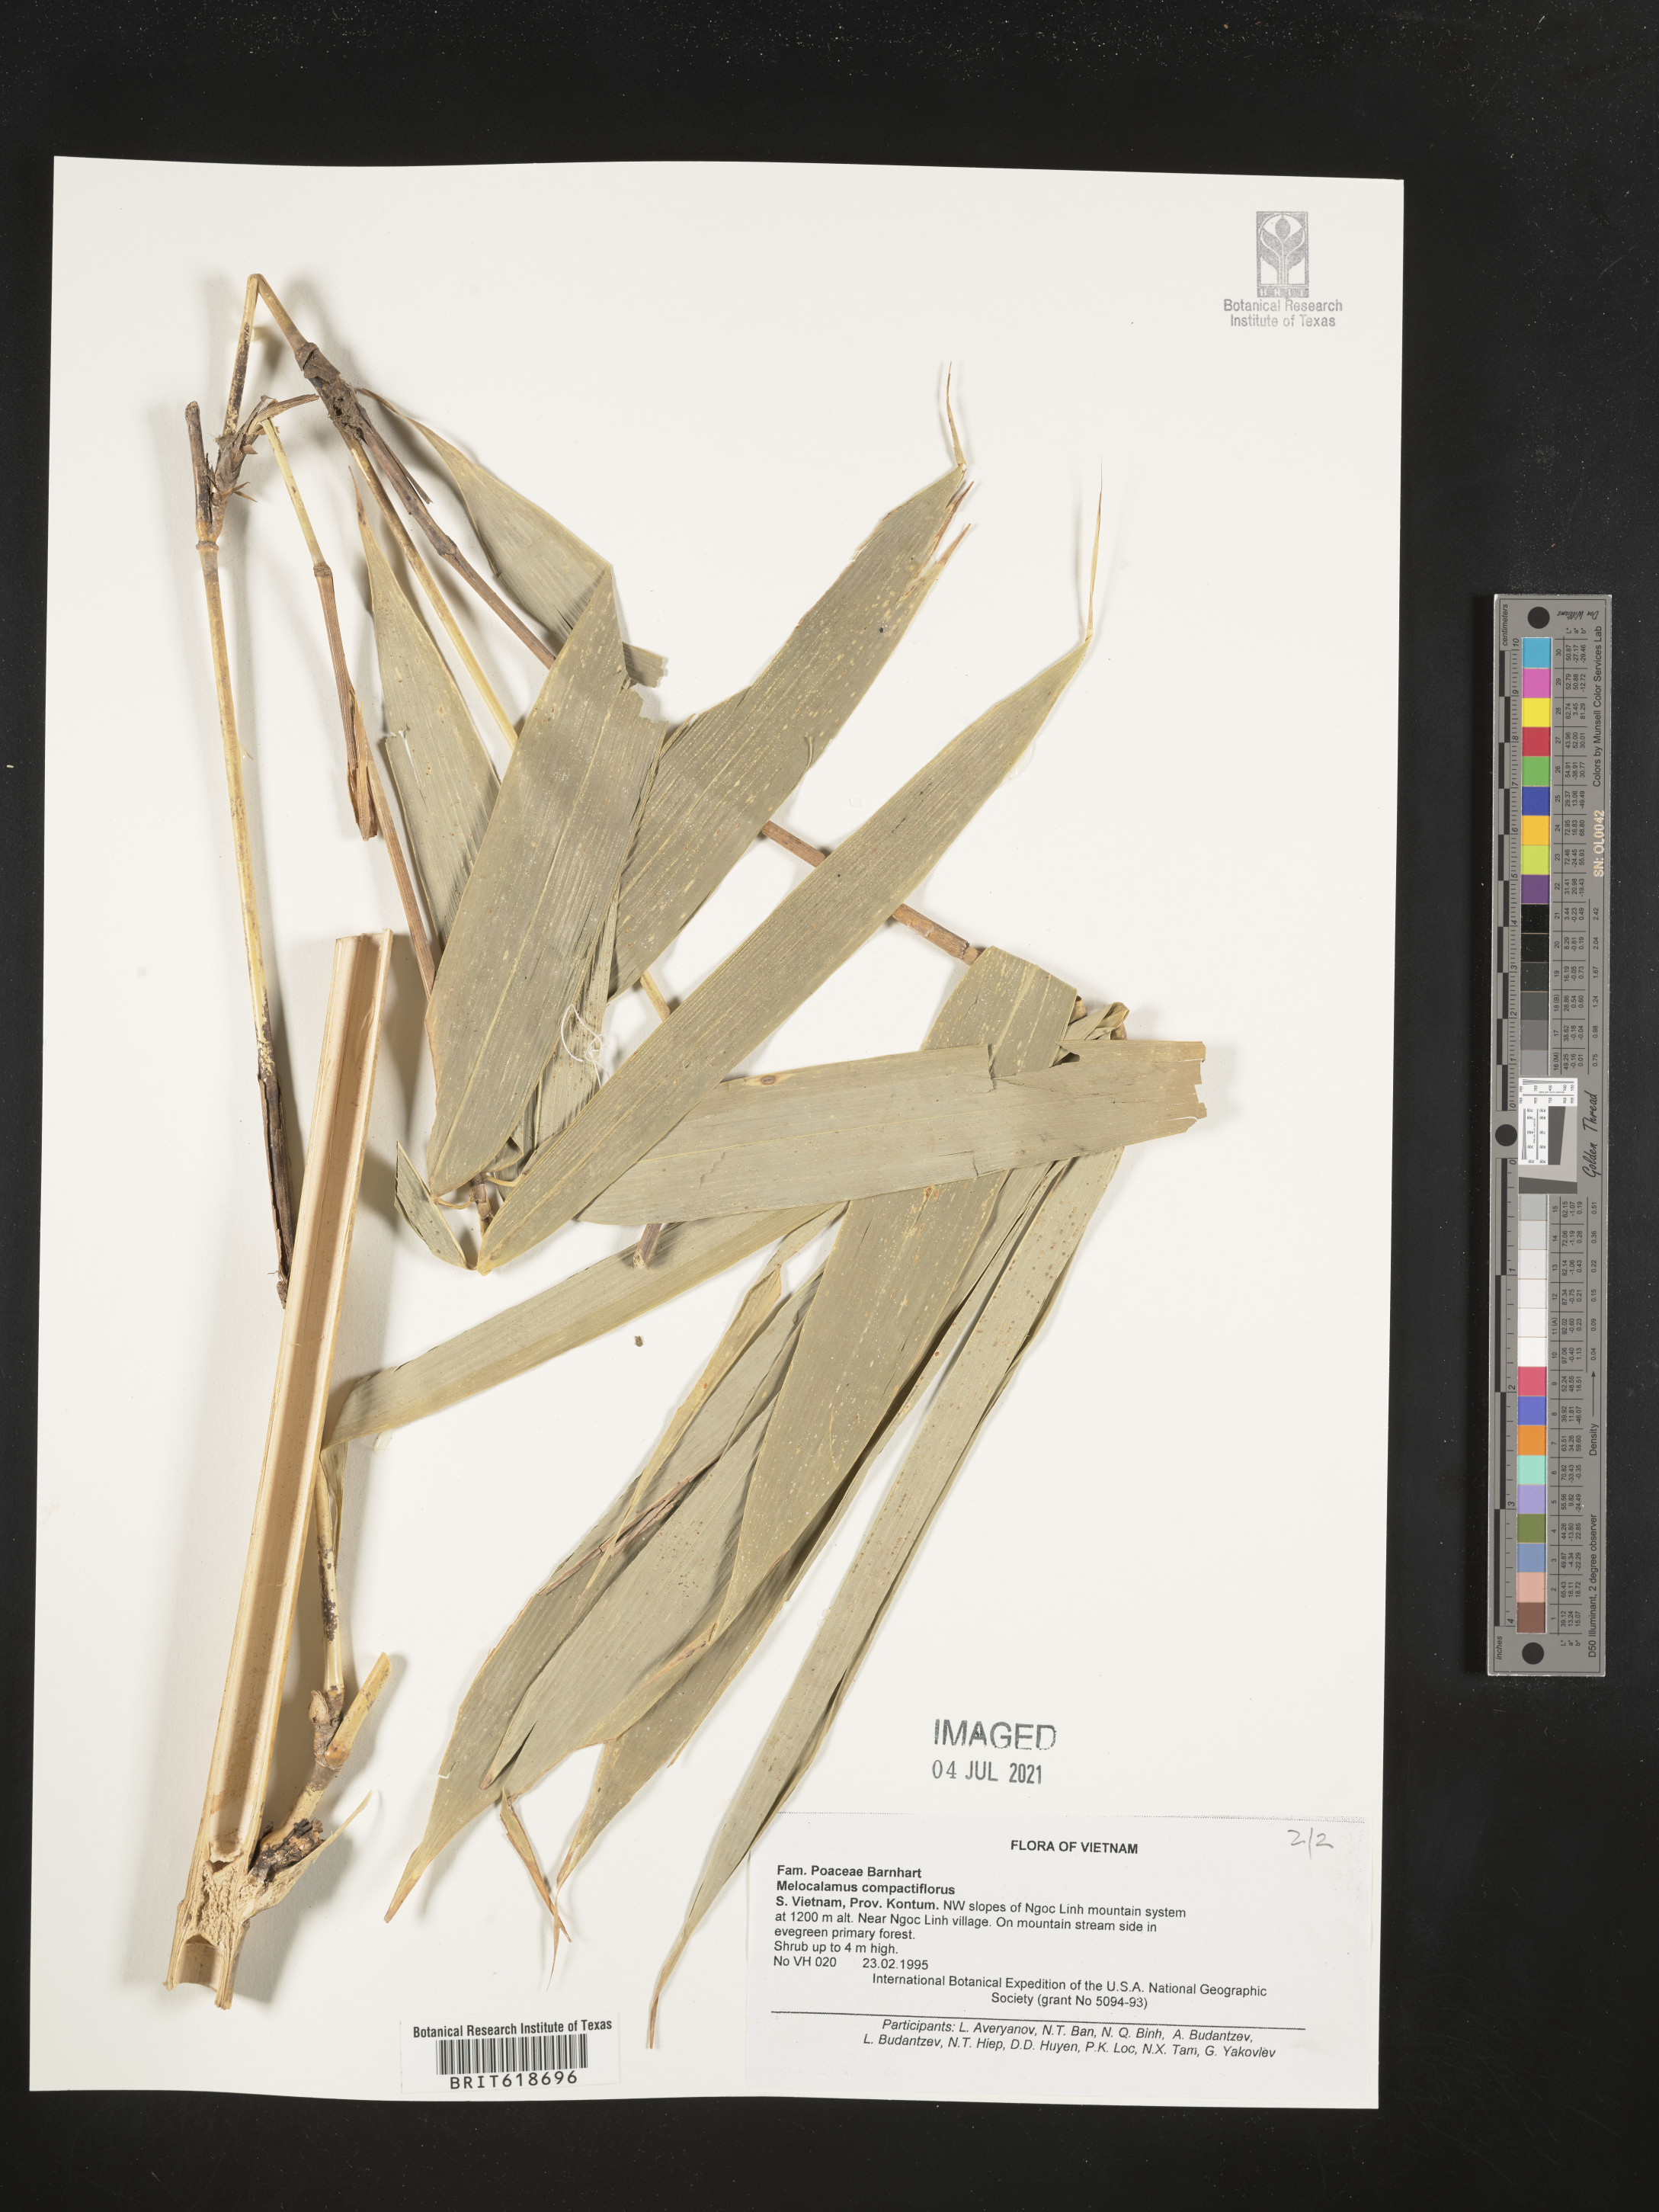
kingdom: Plantae
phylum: Tracheophyta
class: Liliopsida
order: Poales
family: Poaceae
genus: Melocalamus
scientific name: Melocalamus compactiflorus
